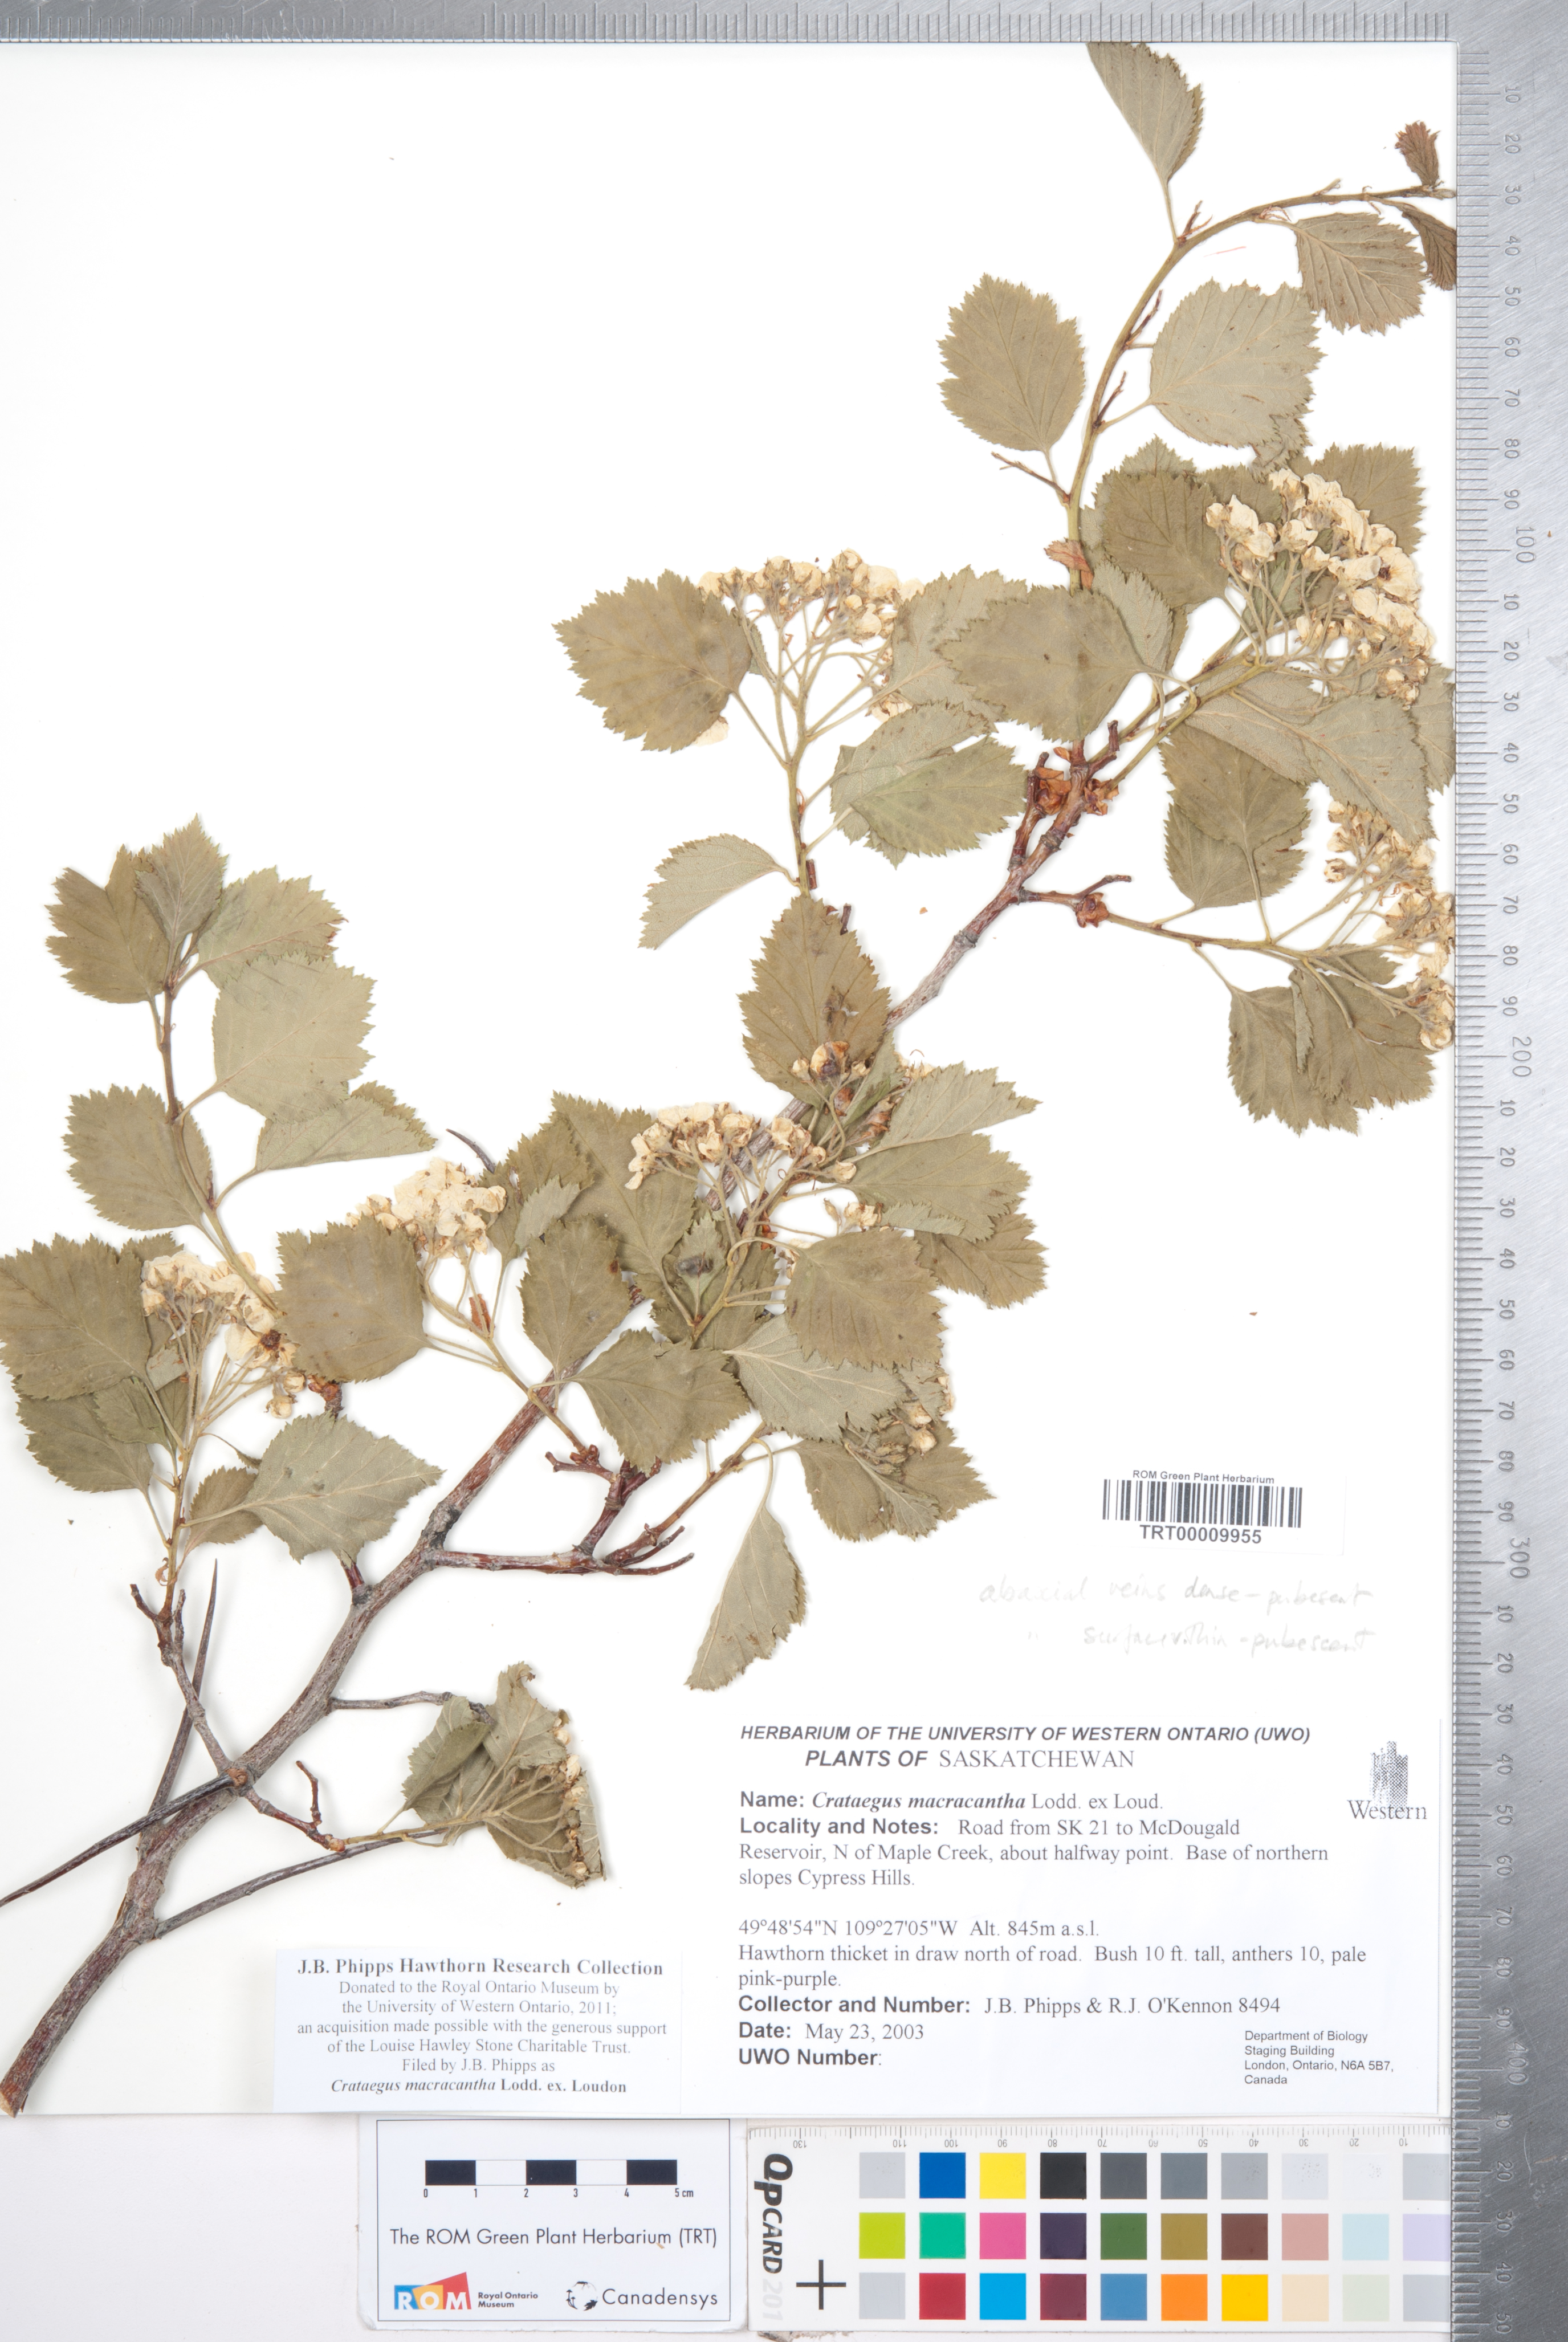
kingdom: Plantae
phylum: Tracheophyta
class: Magnoliopsida
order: Rosales
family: Rosaceae
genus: Crataegus
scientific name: Crataegus macracantha
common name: Large-thorn hawthorn
